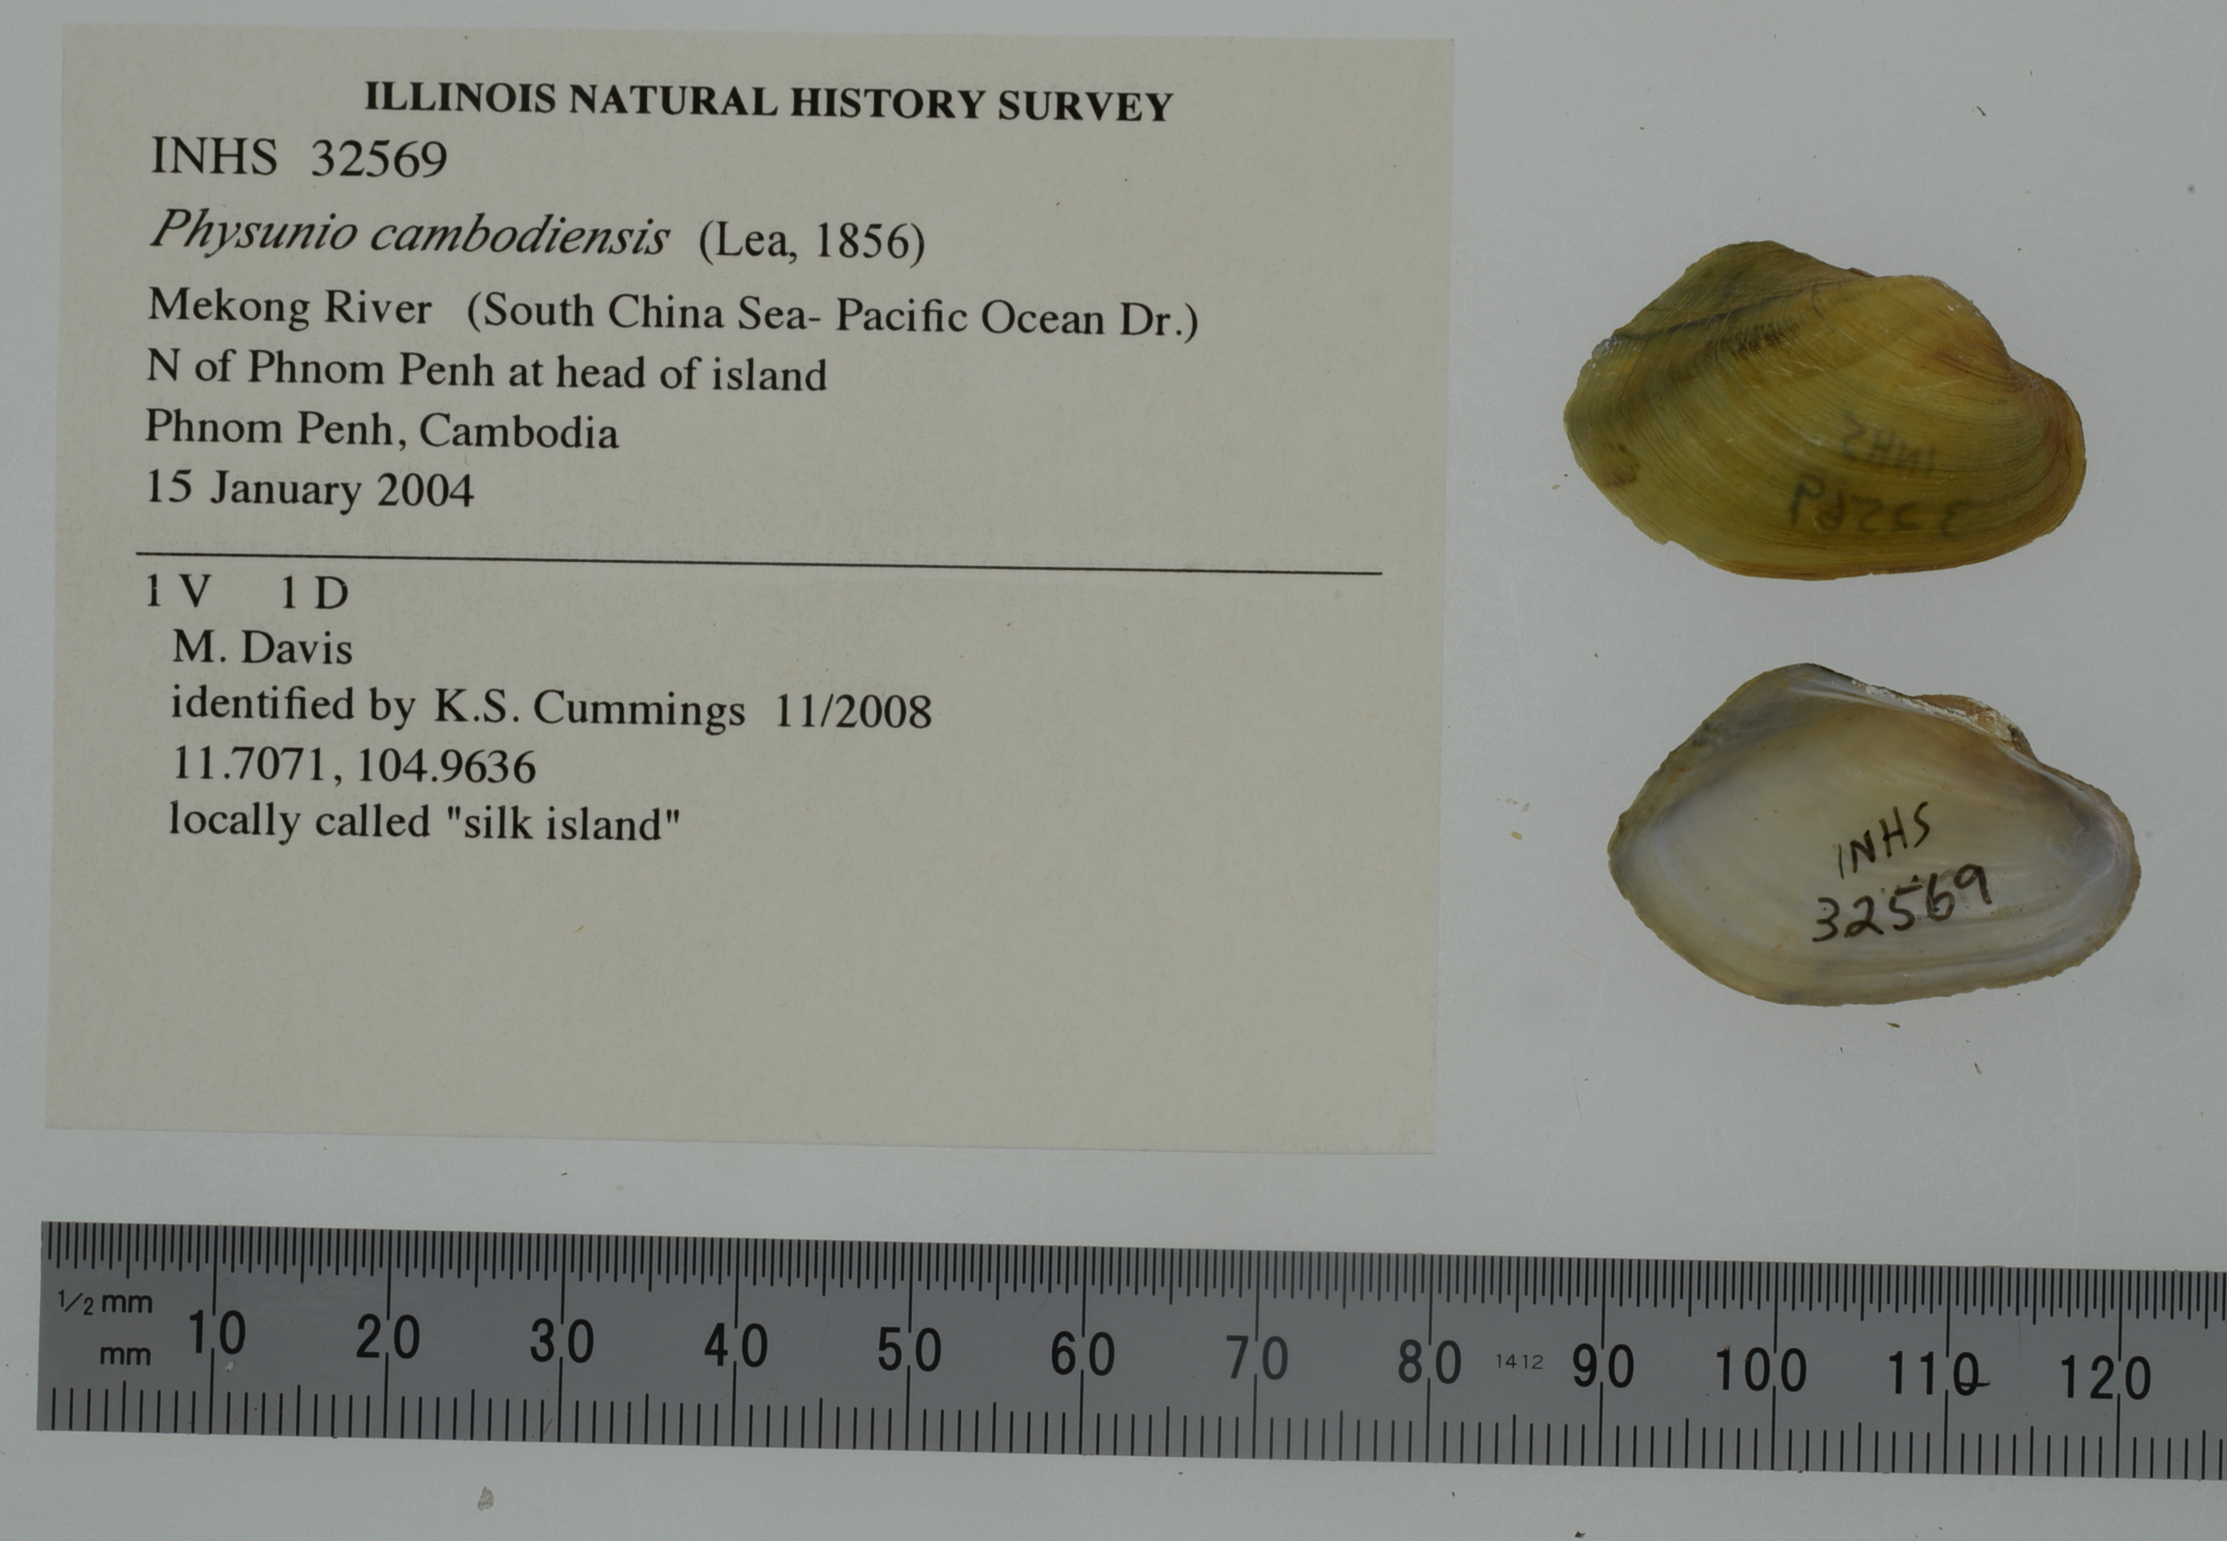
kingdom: Animalia
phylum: Mollusca
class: Bivalvia
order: Unionida
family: Unionidae
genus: Lens
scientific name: Lens contradens
